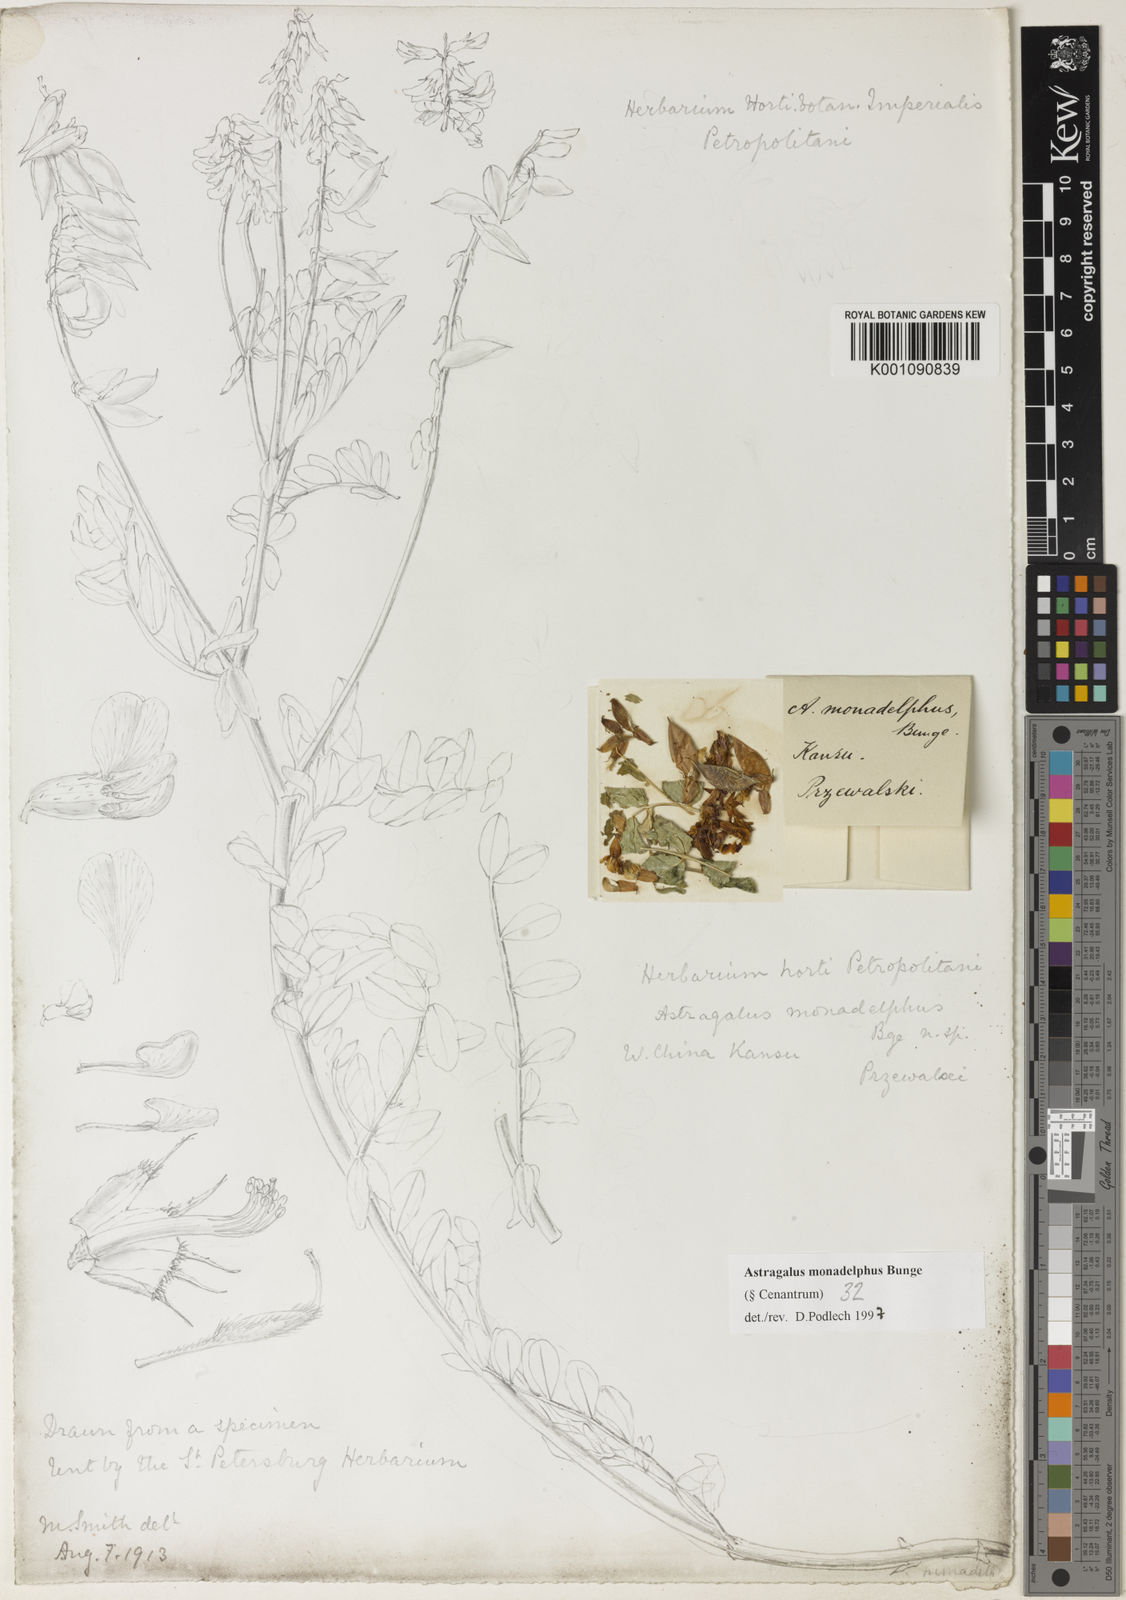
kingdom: Plantae
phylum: Tracheophyta
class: Magnoliopsida
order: Fabales
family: Fabaceae
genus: Astragalus
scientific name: Astragalus
